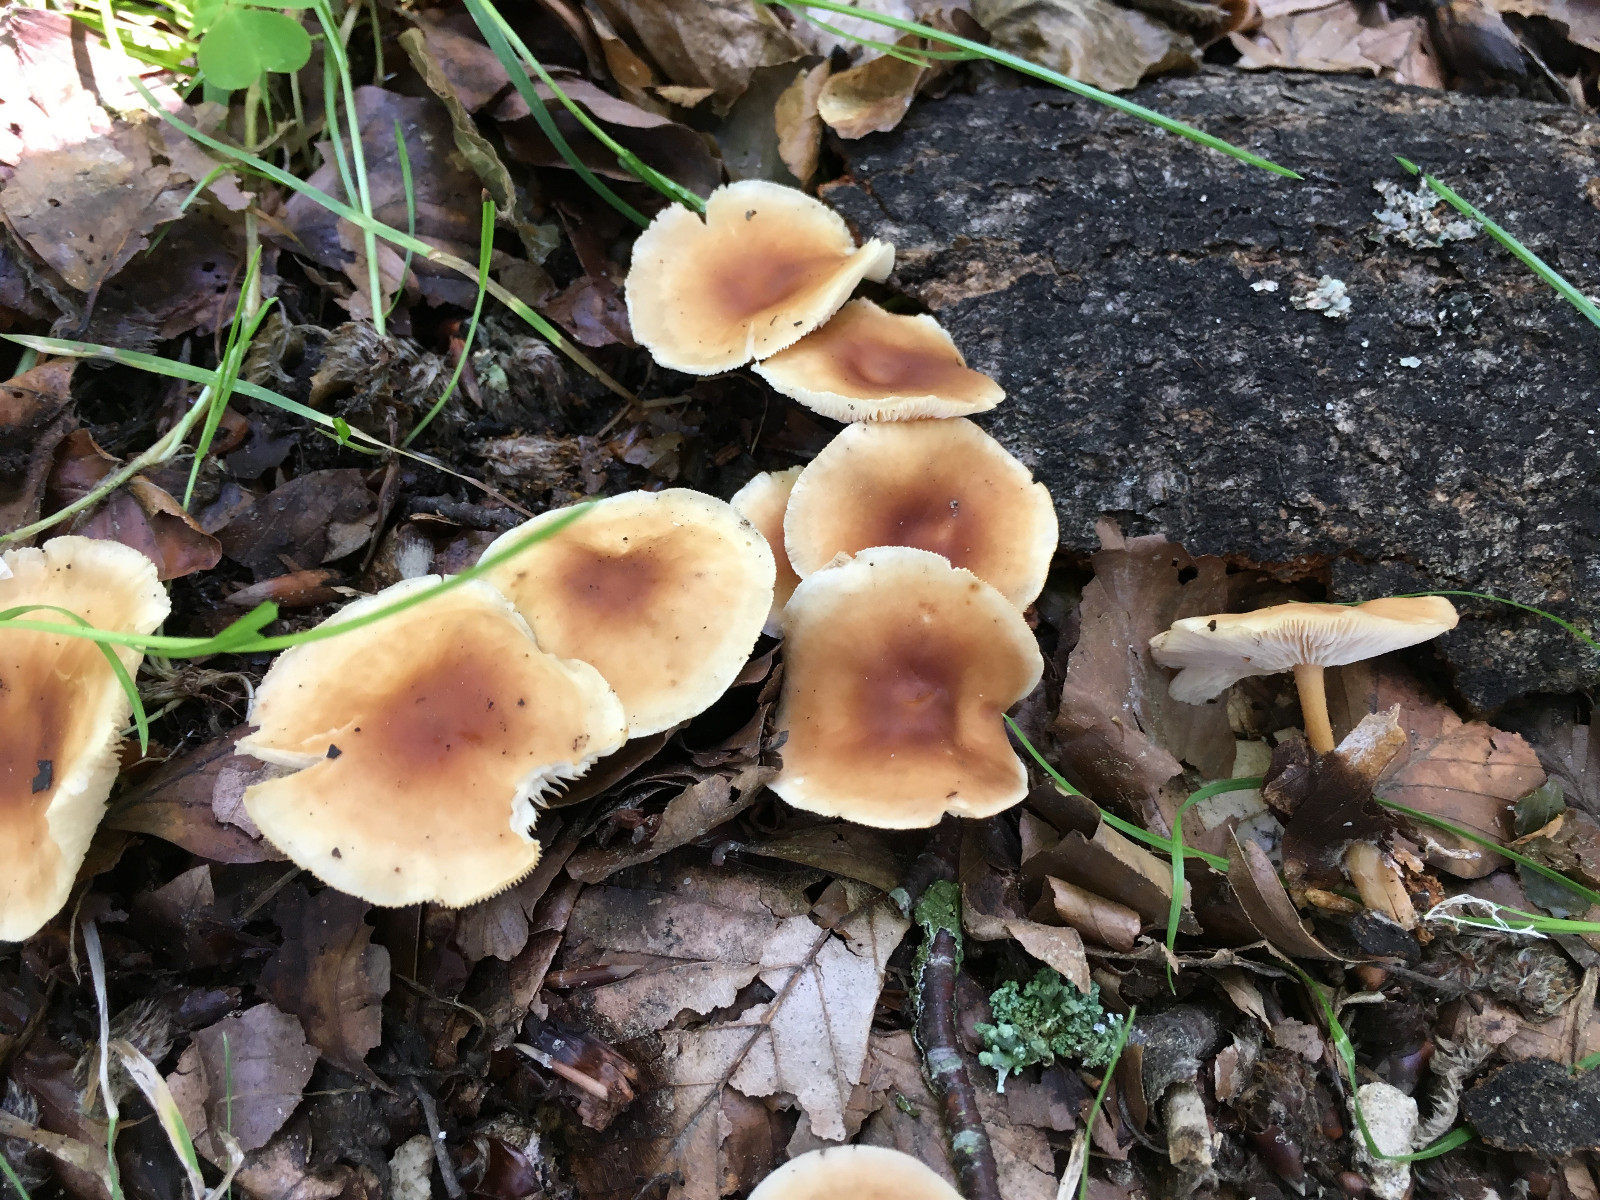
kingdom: Fungi
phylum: Basidiomycota
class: Agaricomycetes
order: Agaricales
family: Omphalotaceae
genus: Gymnopus
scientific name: Gymnopus dryophilus
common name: løv-fladhat
